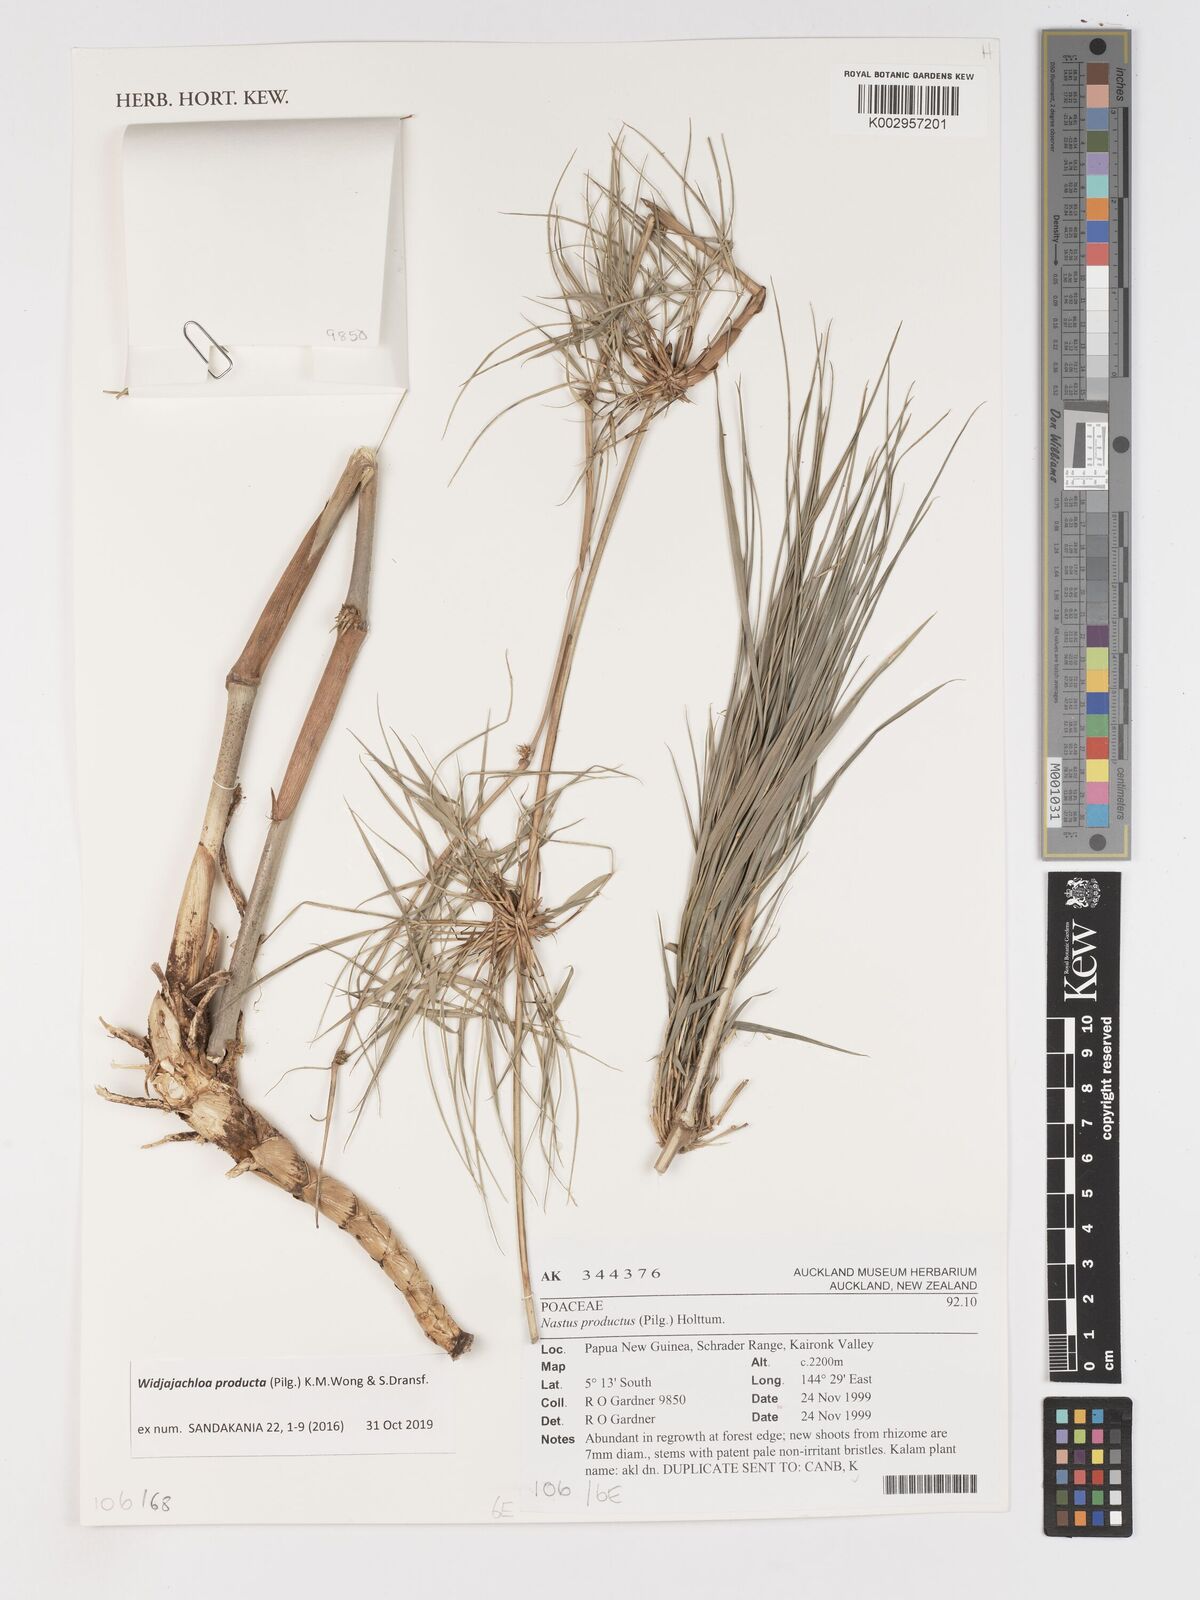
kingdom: Plantae
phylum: Tracheophyta
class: Liliopsida
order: Poales
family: Poaceae
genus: Widjajachloa
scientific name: Widjajachloa producta
